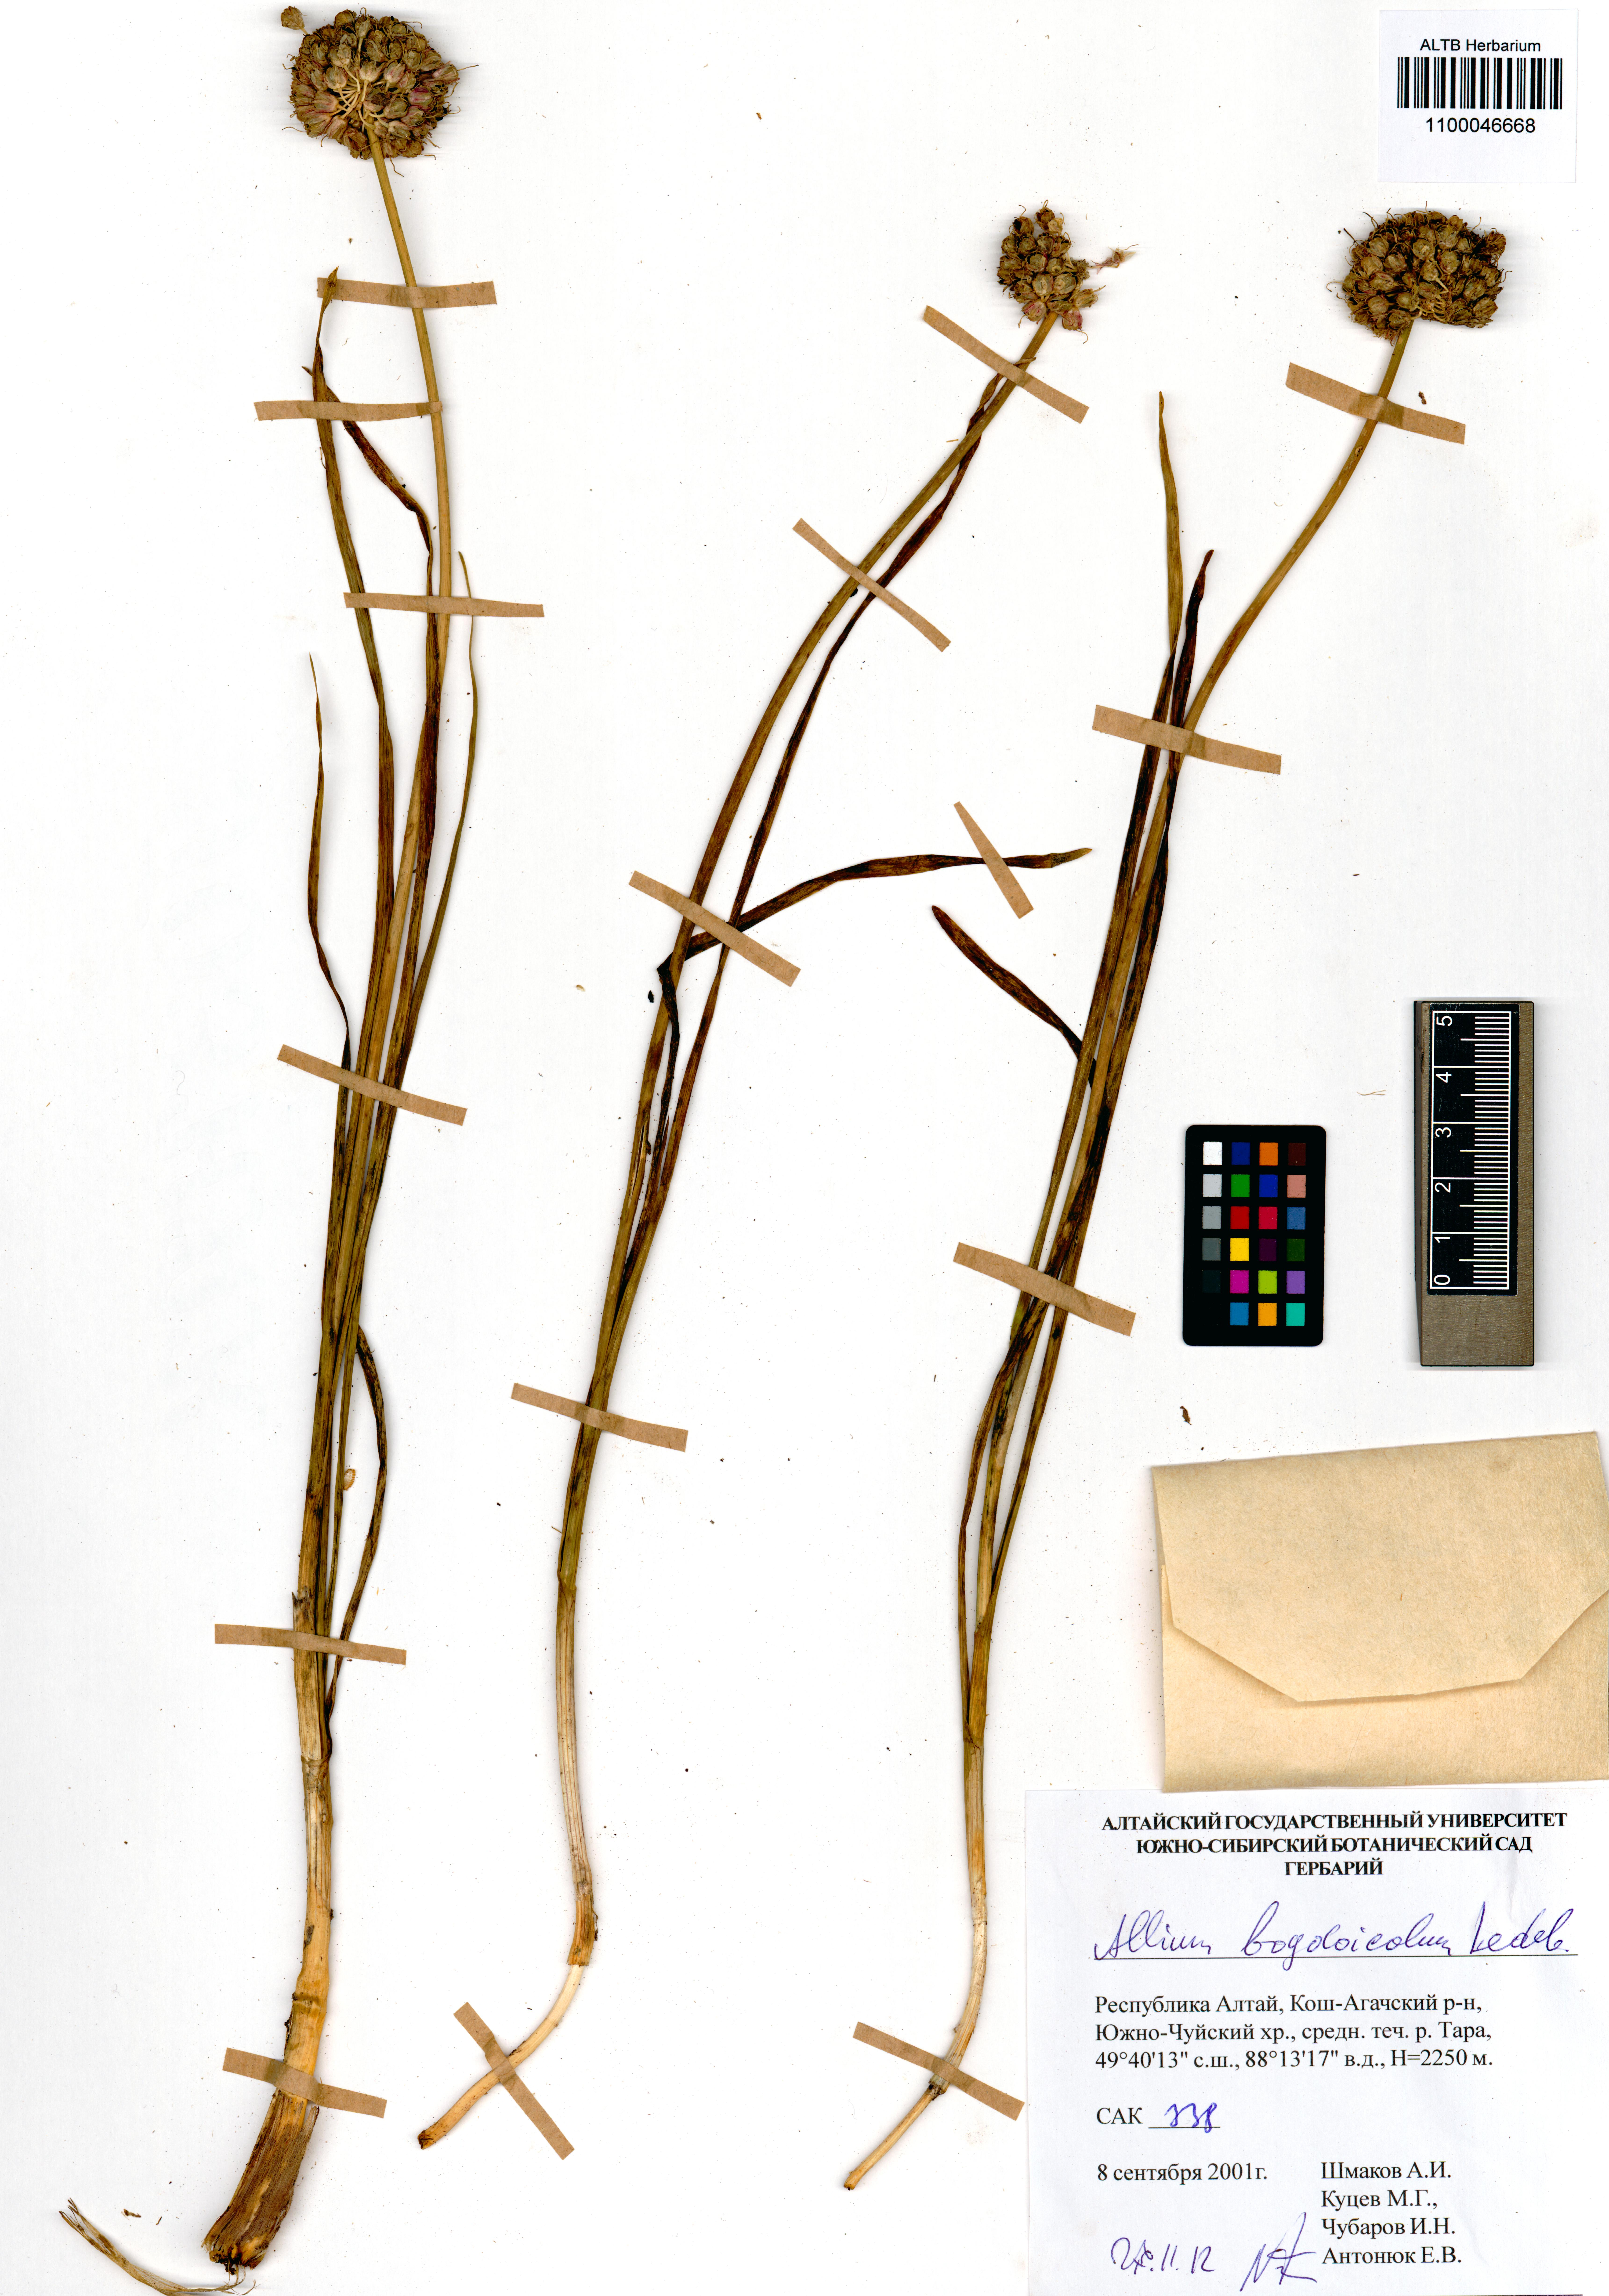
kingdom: Plantae
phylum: Tracheophyta
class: Liliopsida
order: Asparagales
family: Amaryllidaceae
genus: Allium
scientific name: Allium schrenkii
